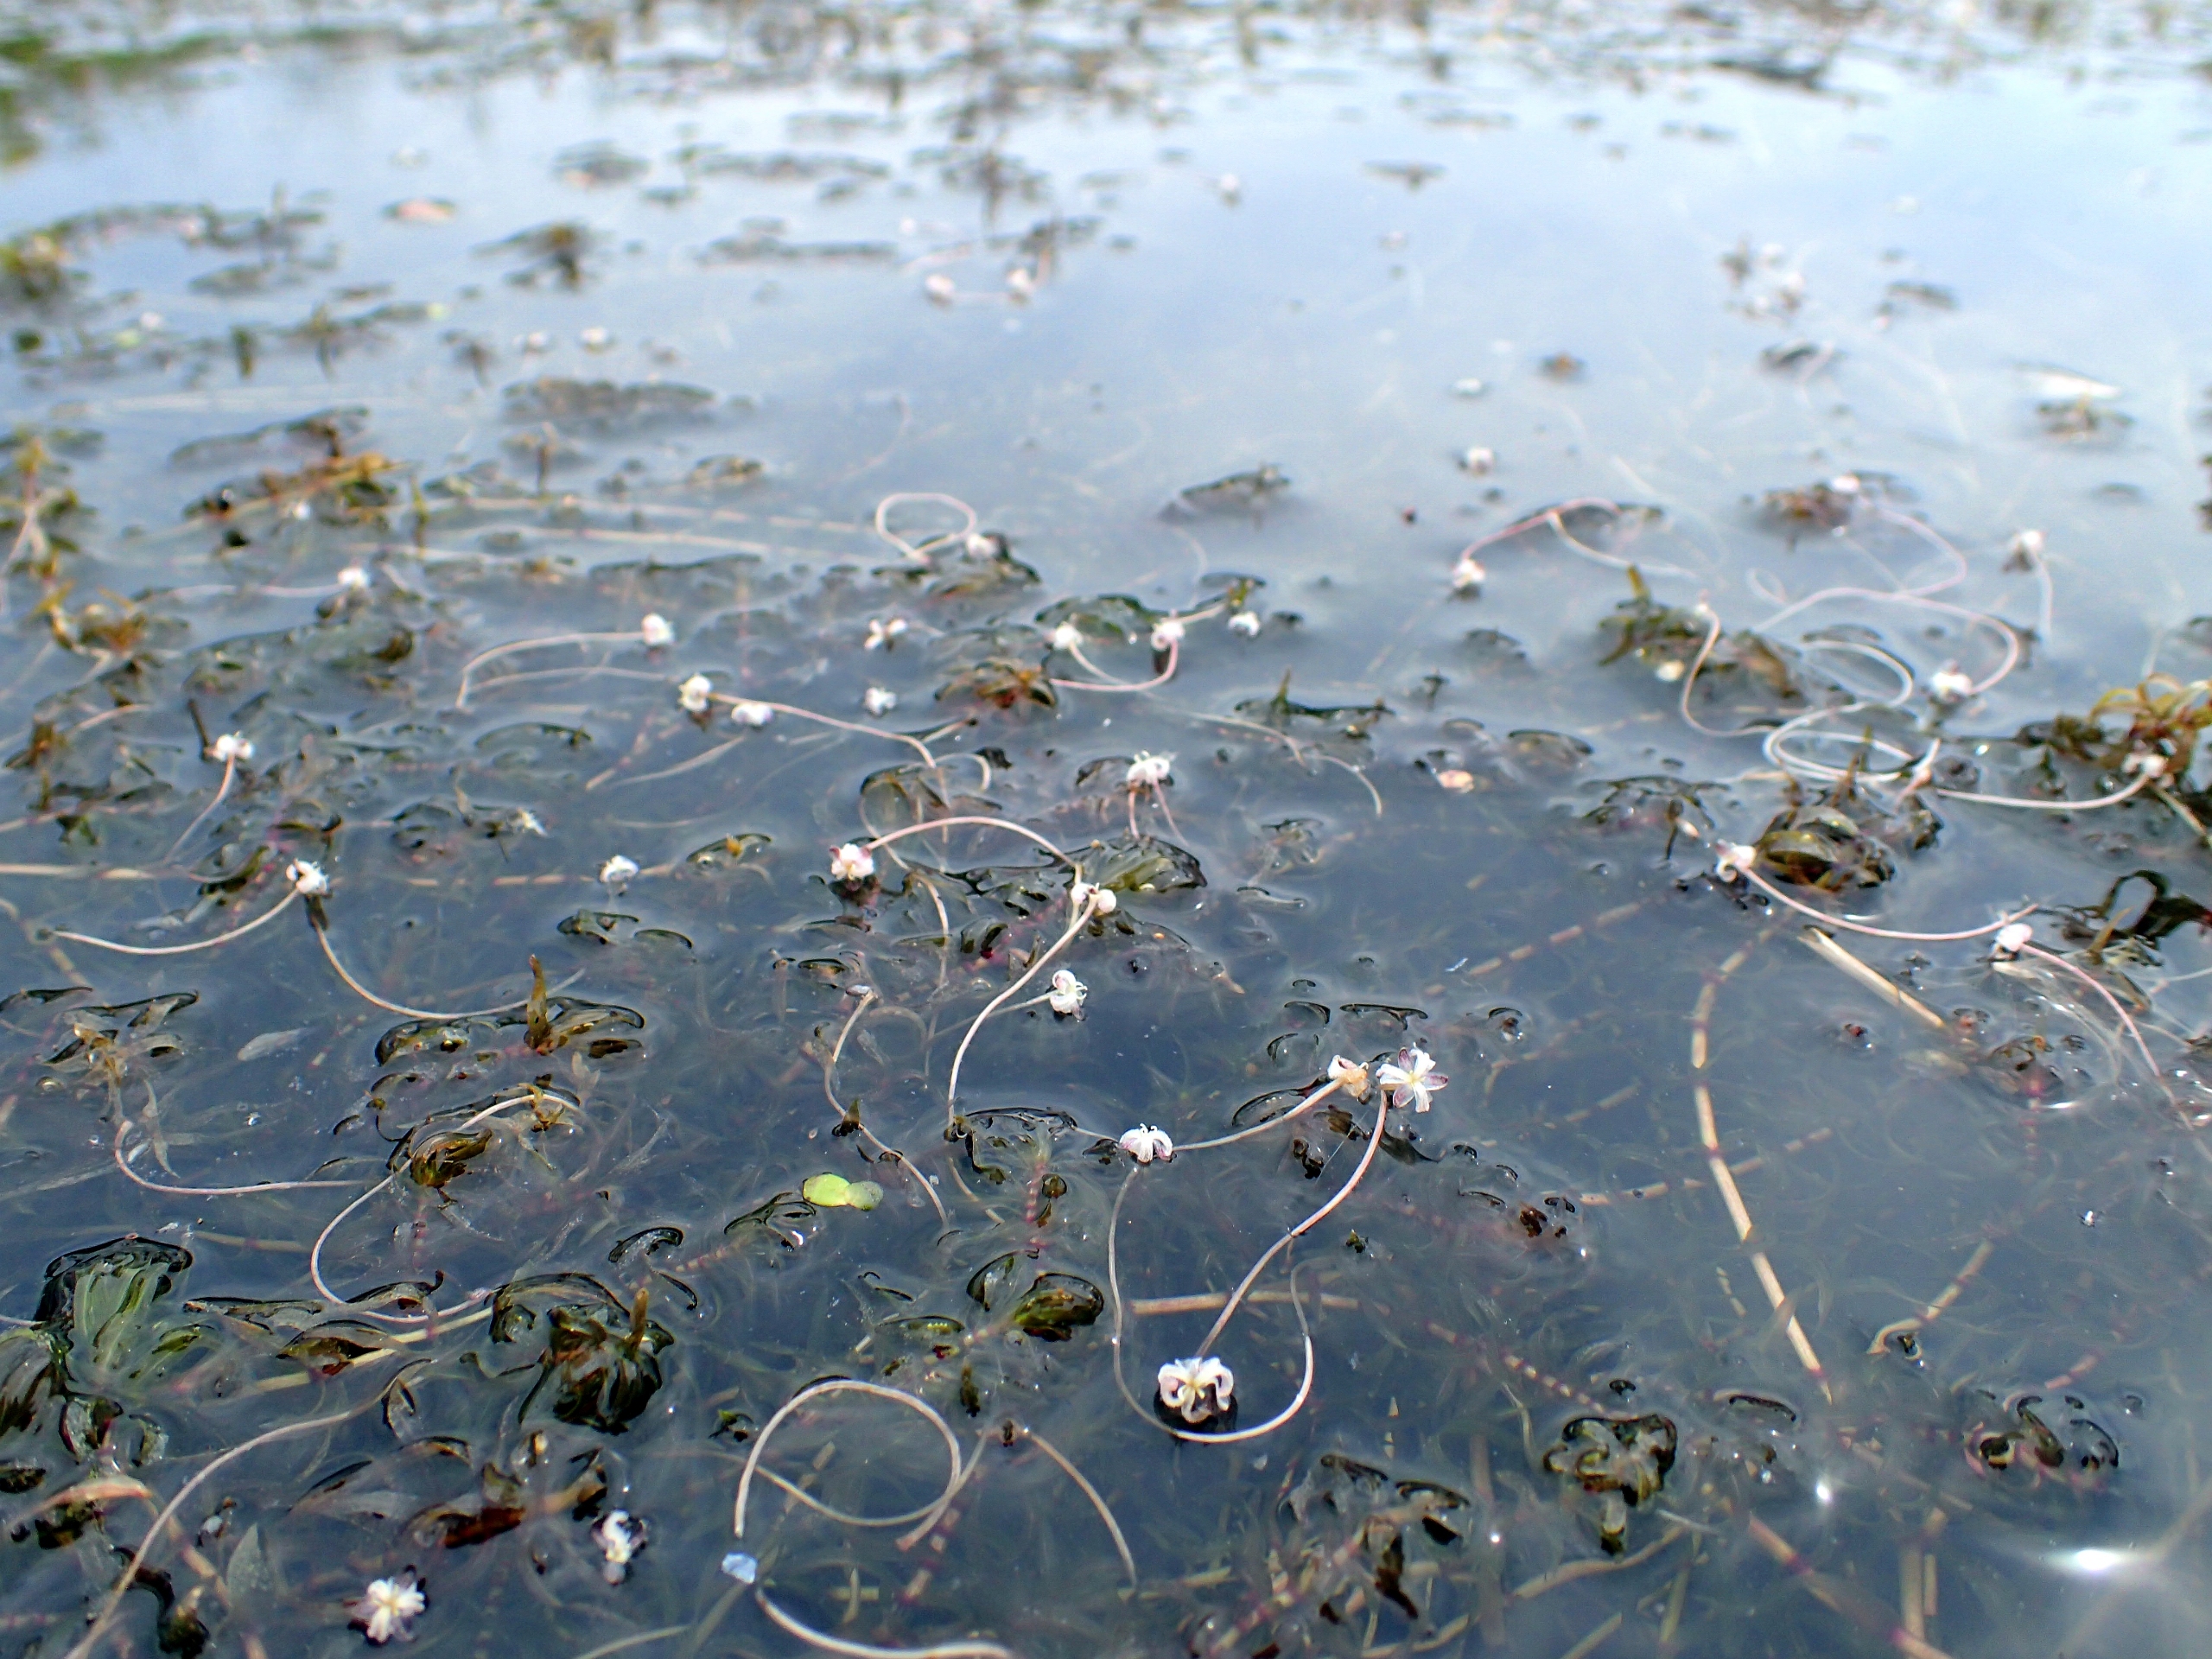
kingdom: Plantae
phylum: Tracheophyta
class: Liliopsida
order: Alismatales
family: Hydrocharitaceae
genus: Elodea
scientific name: Elodea nuttallii
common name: Smalbladet vandpest
